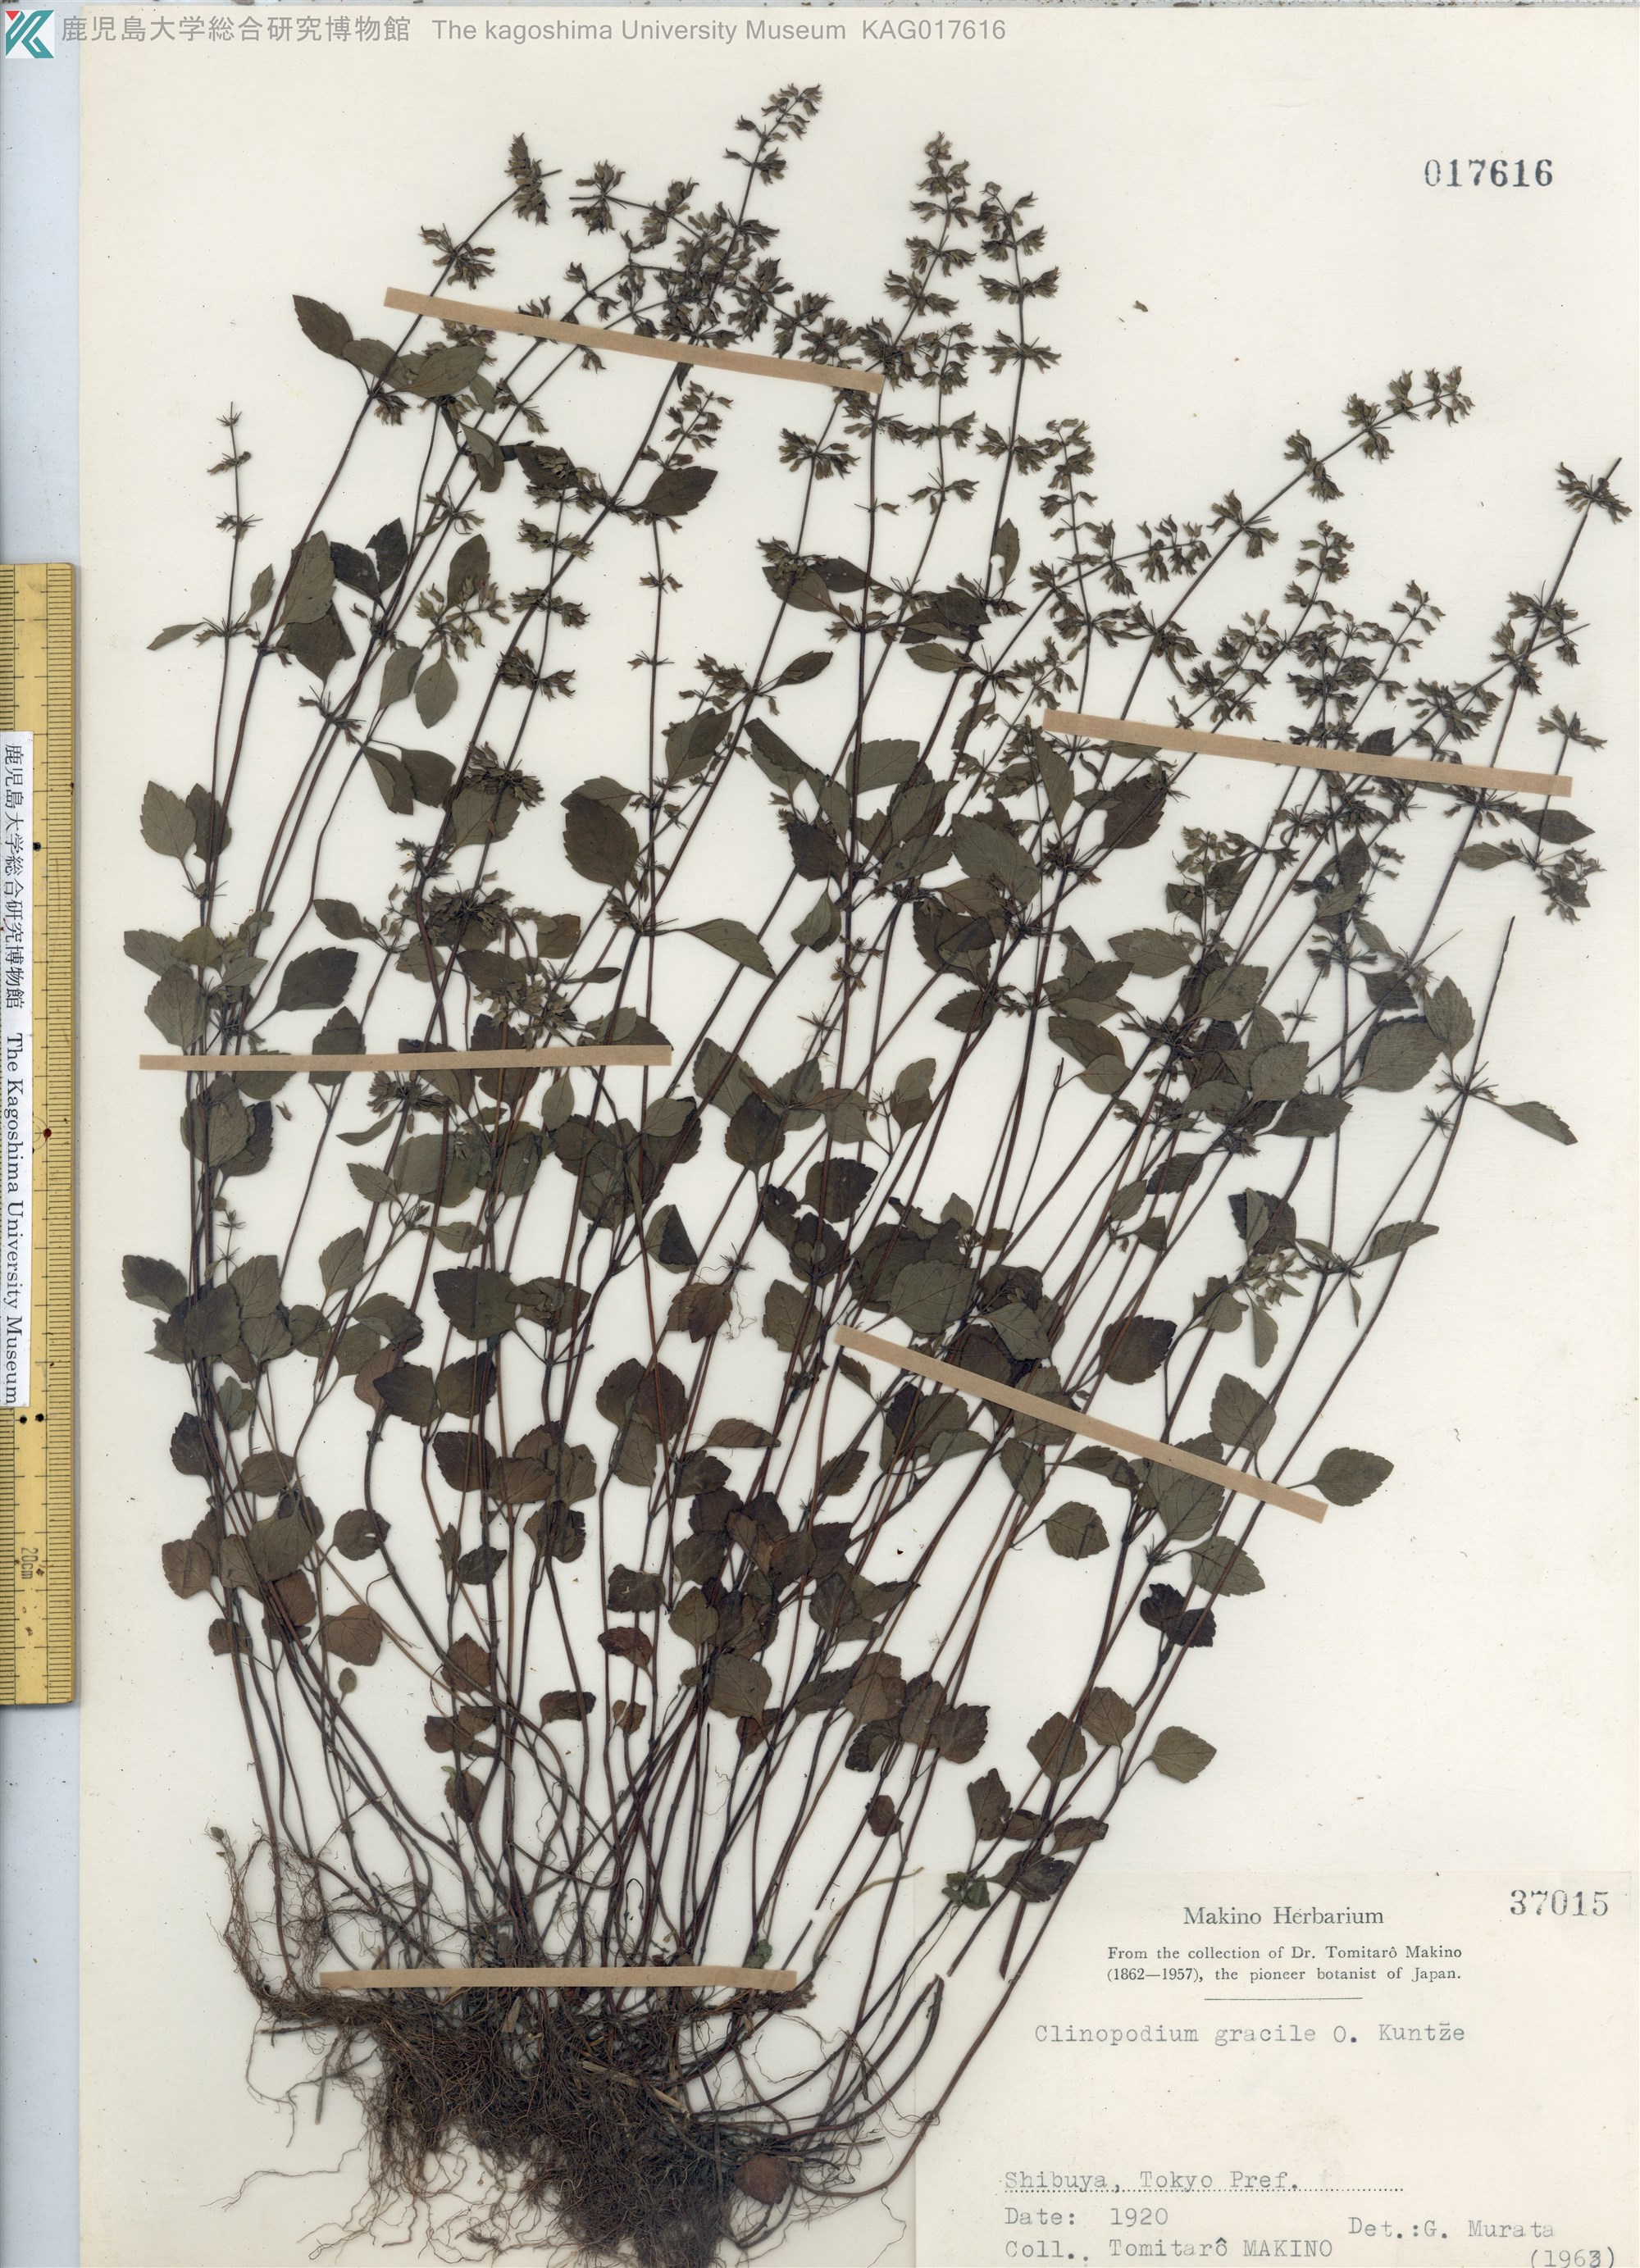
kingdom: Plantae
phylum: Tracheophyta
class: Magnoliopsida
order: Lamiales
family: Lamiaceae
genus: Clinopodium
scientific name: Clinopodium gracile
